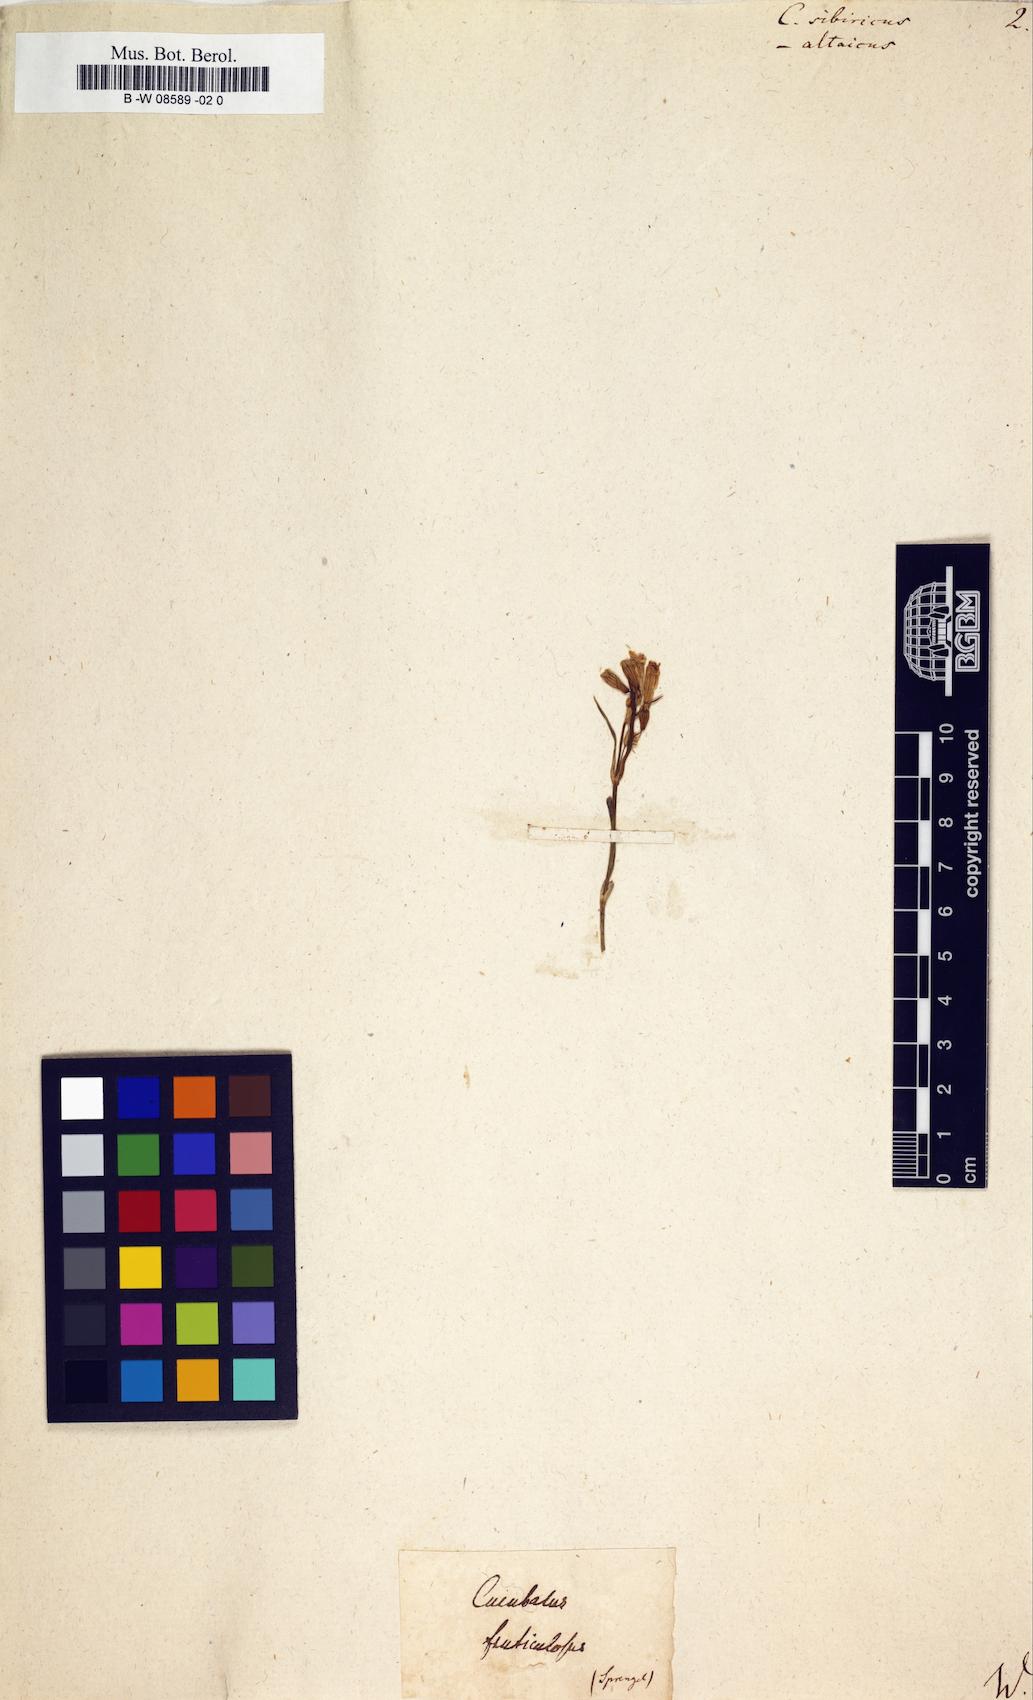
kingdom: Plantae
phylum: Tracheophyta
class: Magnoliopsida
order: Caryophyllales
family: Caryophyllaceae
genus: Silene
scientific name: Silene
